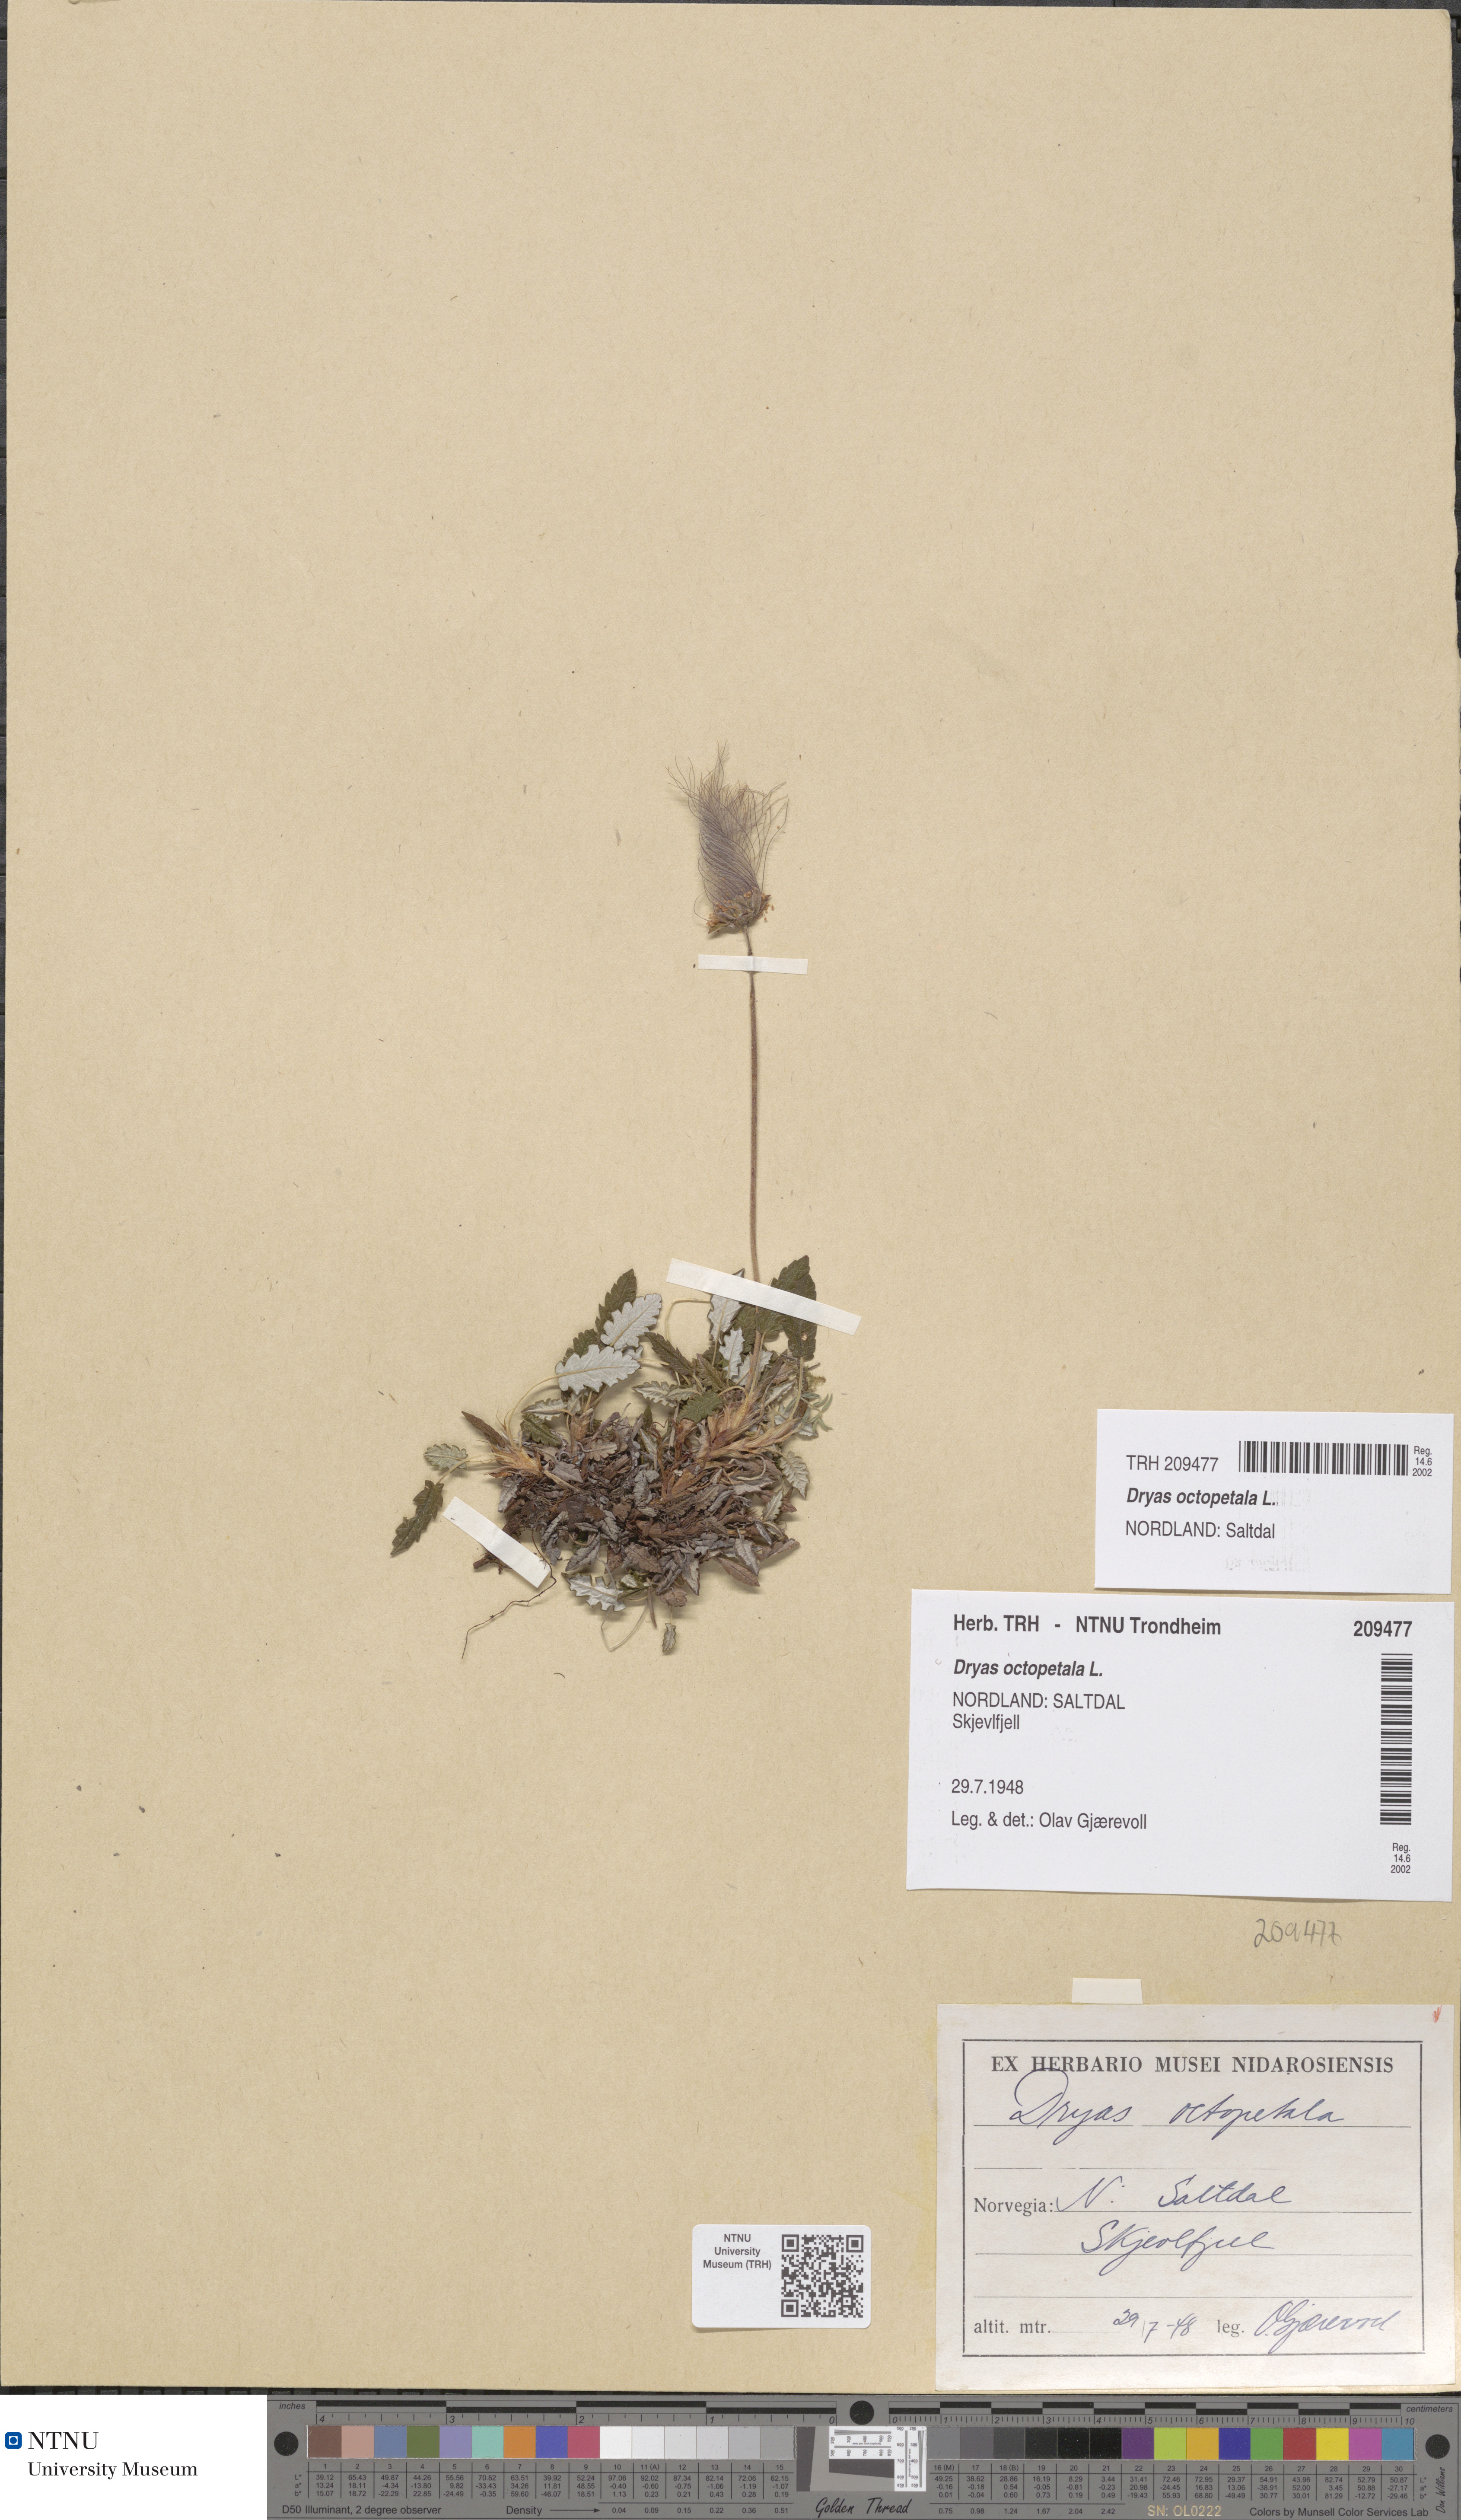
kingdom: Plantae
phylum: Tracheophyta
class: Magnoliopsida
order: Rosales
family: Rosaceae
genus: Dryas
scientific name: Dryas octopetala
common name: Eight-petal mountain-avens
